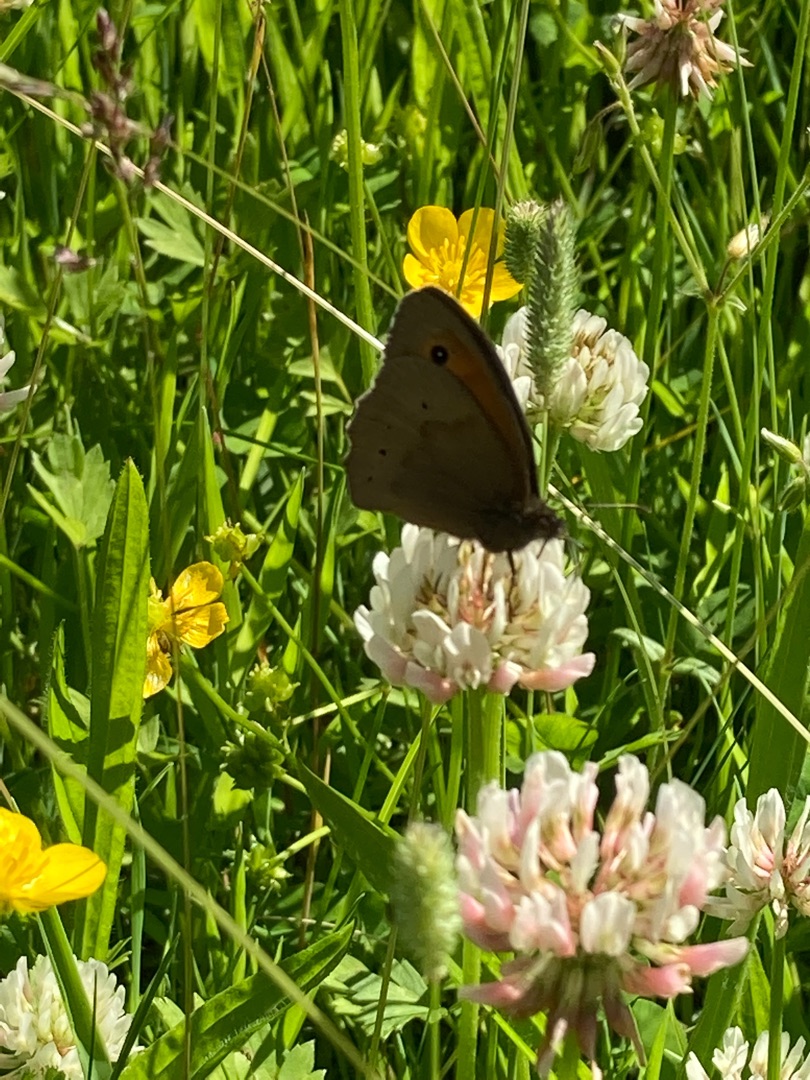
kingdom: Animalia
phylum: Arthropoda
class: Insecta
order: Lepidoptera
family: Nymphalidae
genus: Maniola
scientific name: Maniola jurtina
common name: Græsrandøje
